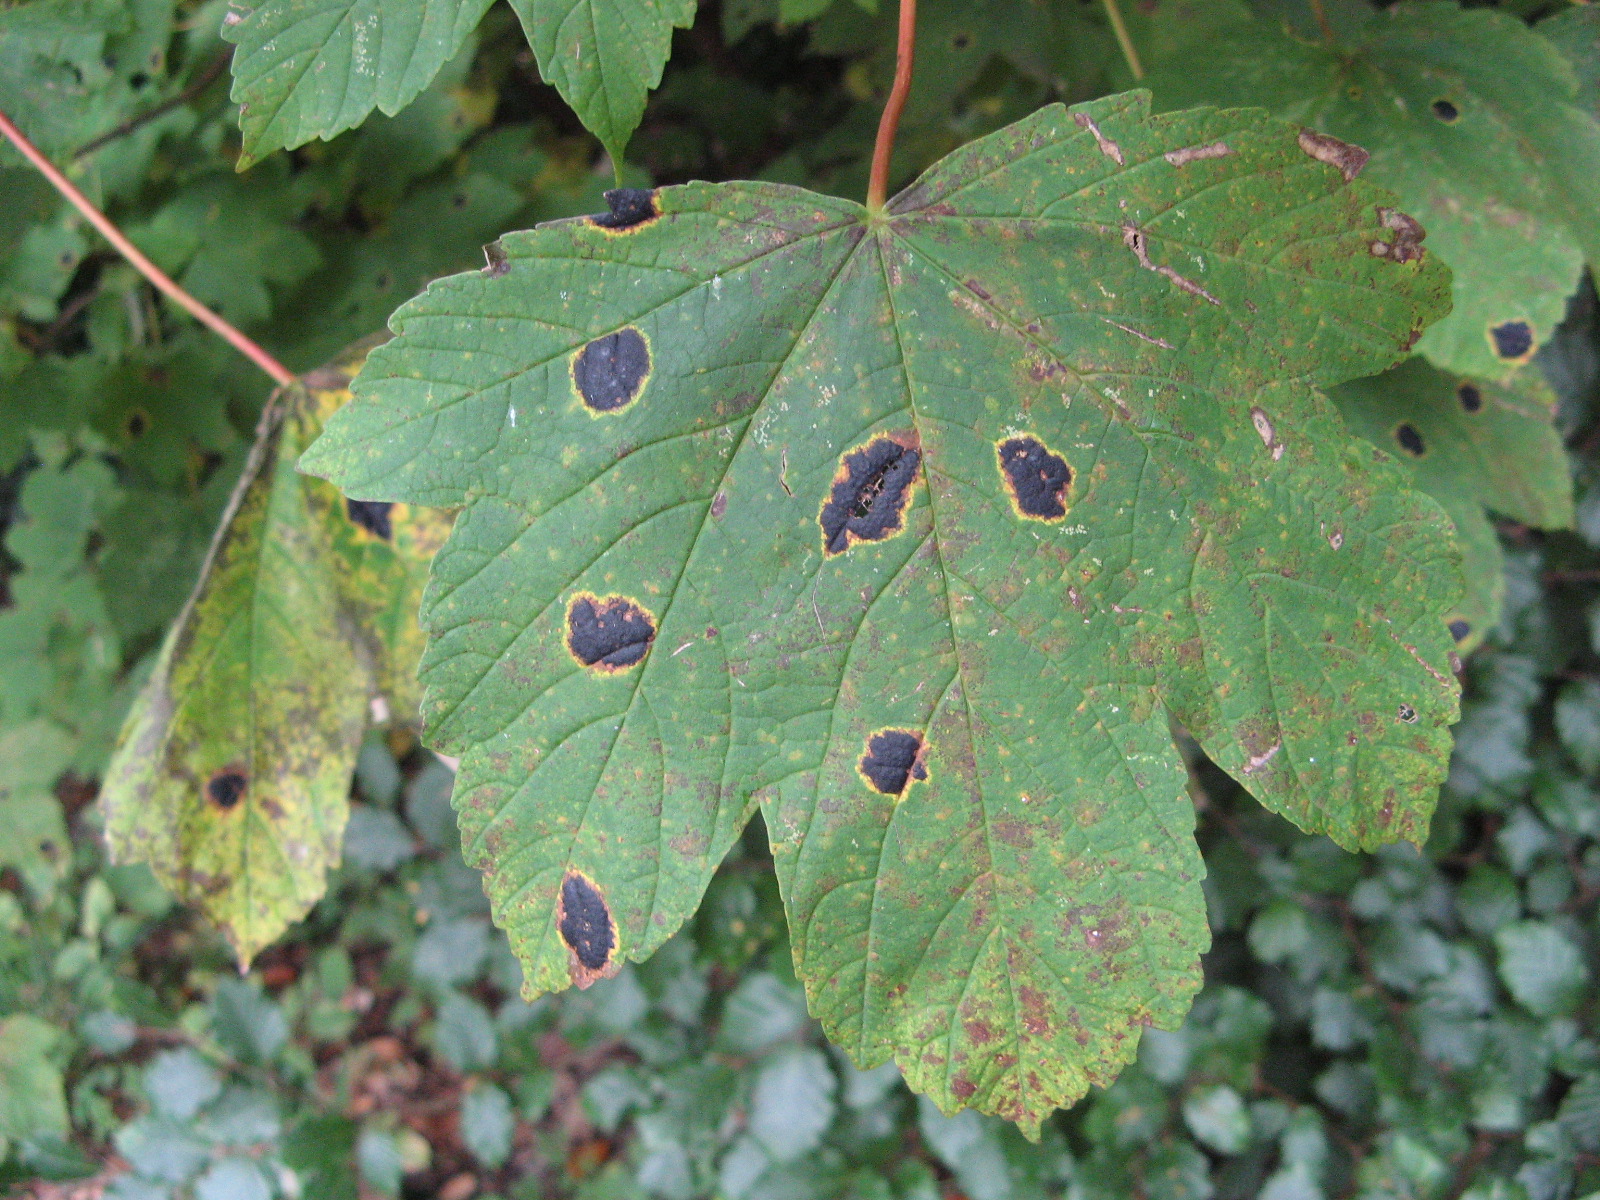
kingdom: Fungi
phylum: Ascomycota
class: Leotiomycetes
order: Rhytismatales
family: Rhytismataceae
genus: Rhytisma
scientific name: Rhytisma acerinum
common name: ahorn-rynkeplet
